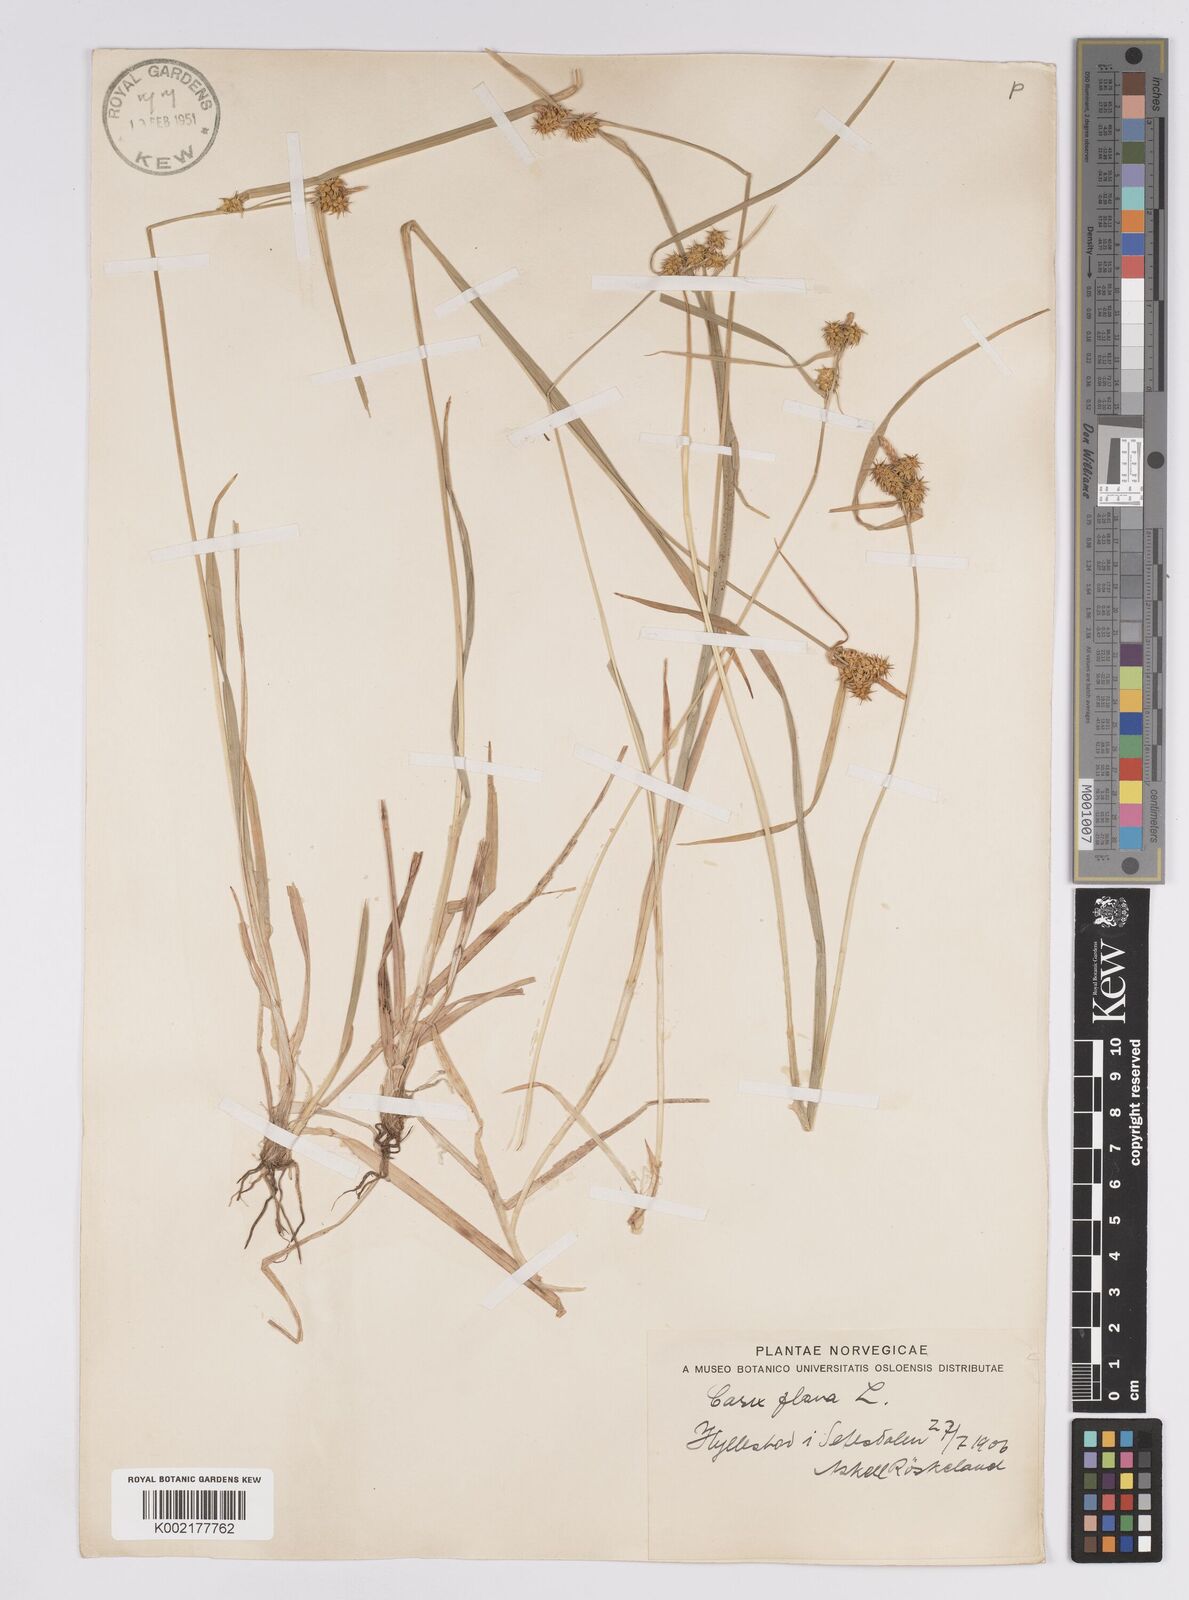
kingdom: Plantae
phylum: Tracheophyta
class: Liliopsida
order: Poales
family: Cyperaceae
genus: Carex
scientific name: Carex flava
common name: Large yellow-sedge
